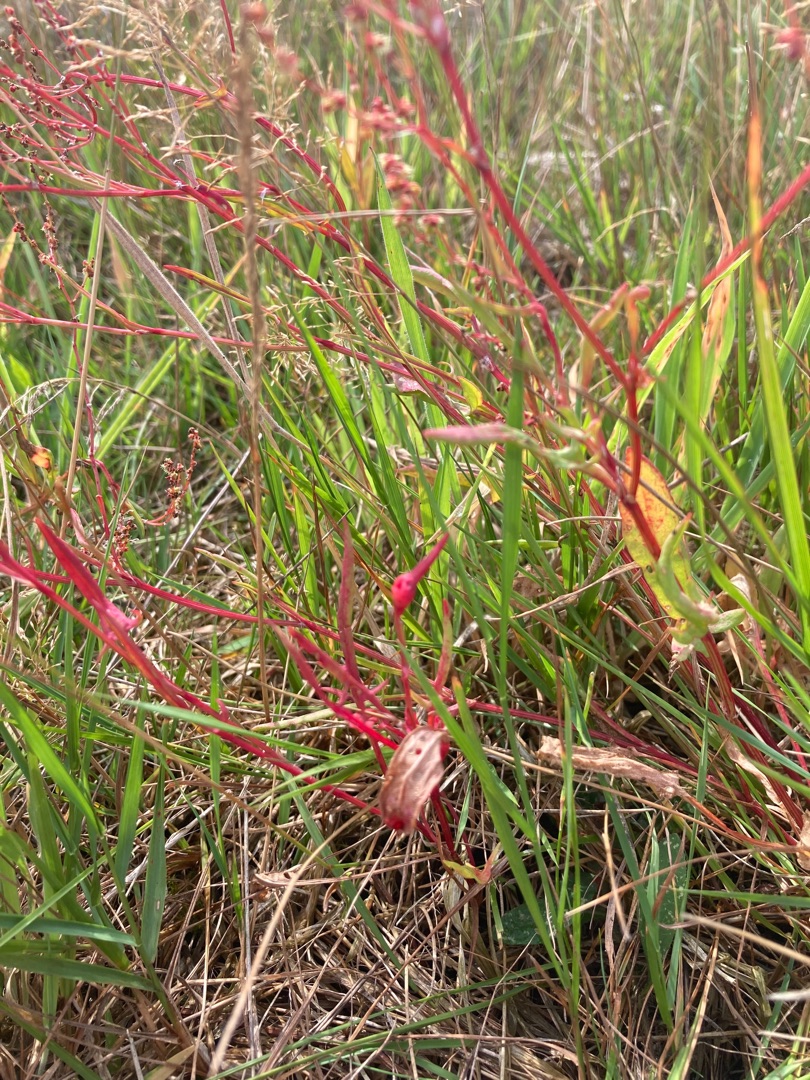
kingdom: Plantae
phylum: Tracheophyta
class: Magnoliopsida
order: Caryophyllales
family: Polygonaceae
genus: Rumex
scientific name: Rumex acetosella
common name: Rødknæ
